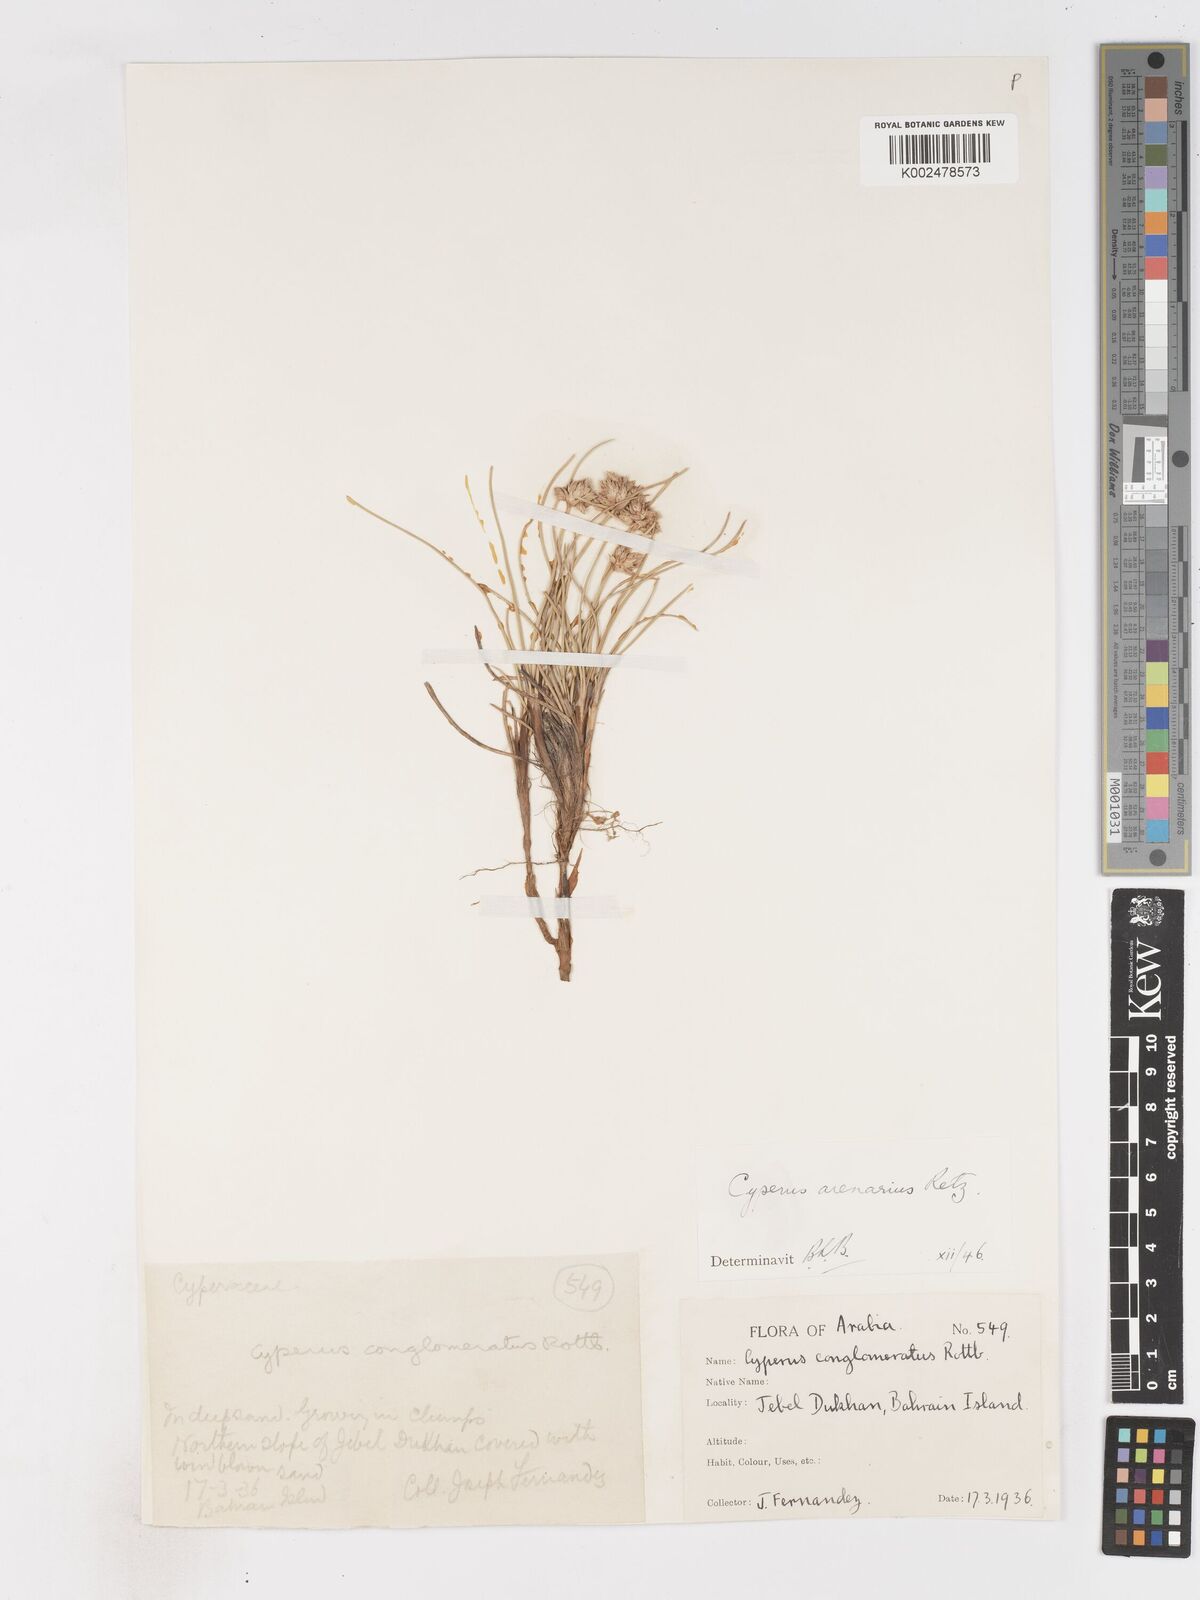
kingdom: Plantae
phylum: Tracheophyta
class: Liliopsida
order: Poales
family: Cyperaceae
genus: Cyperus
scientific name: Cyperus arenarius
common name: Dwarf sedge
